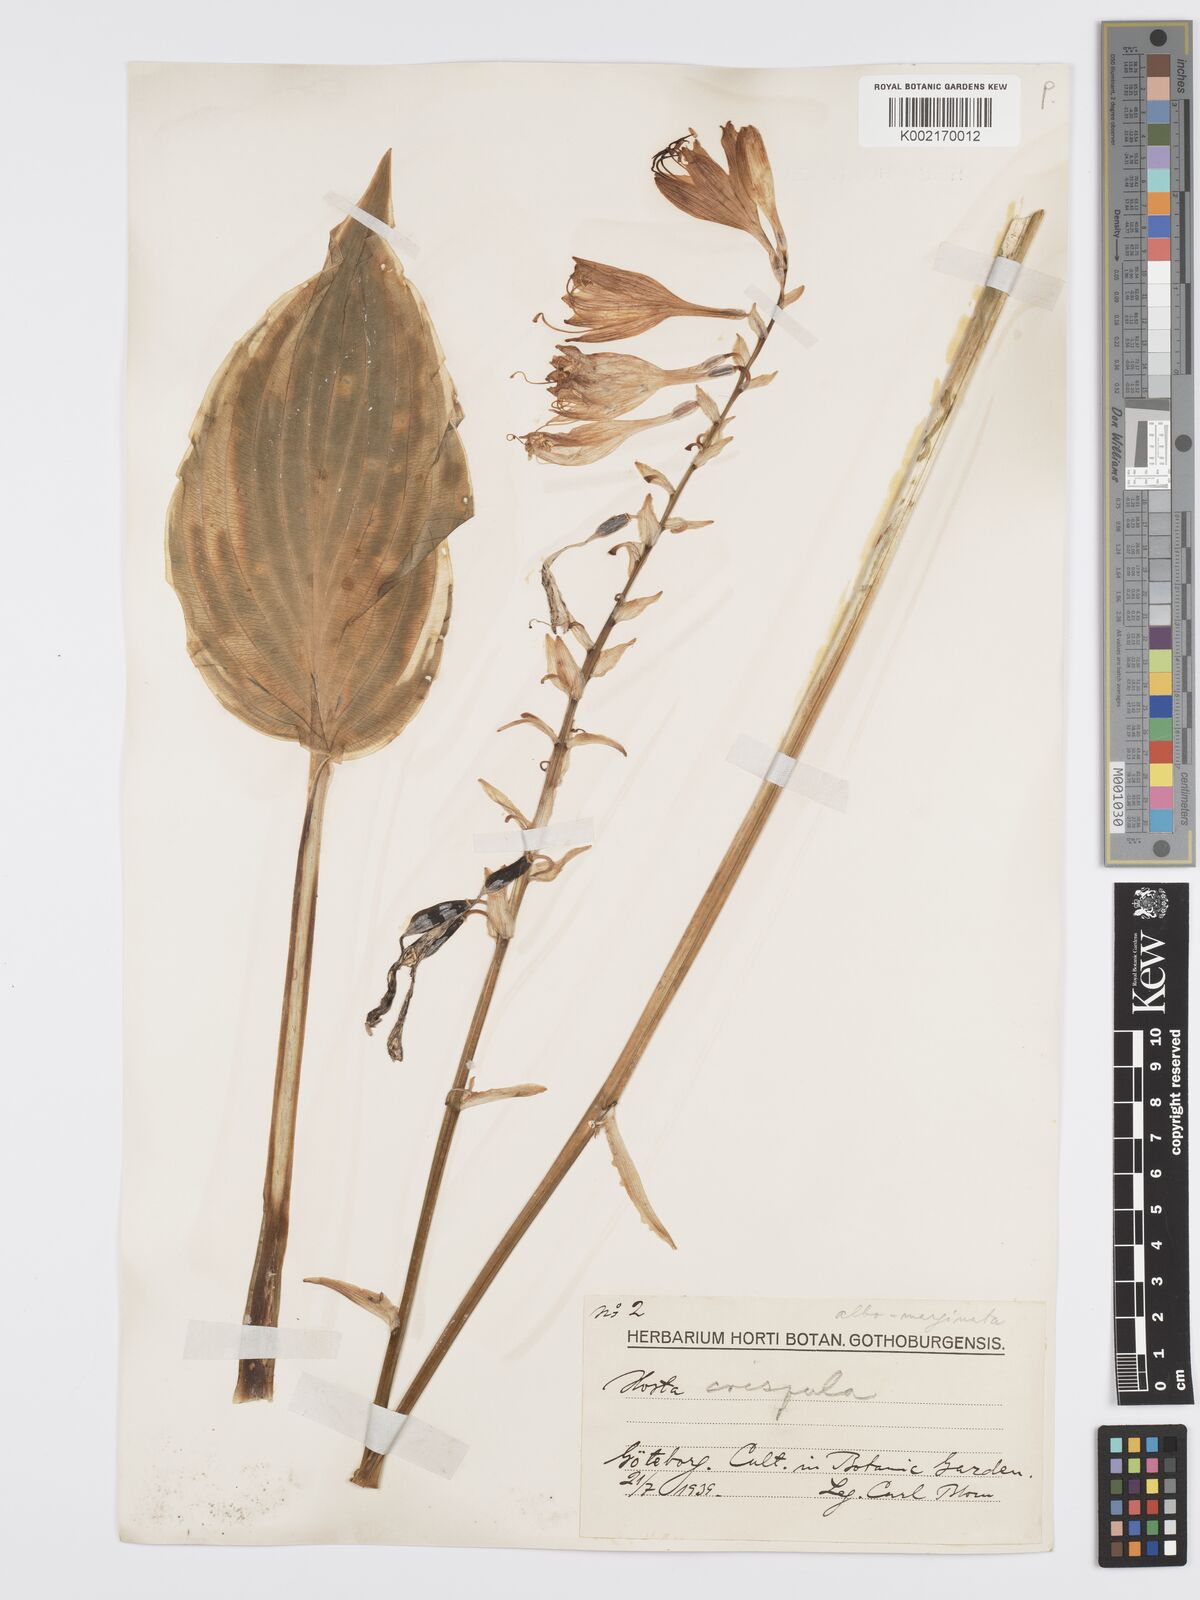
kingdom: Plantae
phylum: Tracheophyta
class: Liliopsida
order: Asparagales
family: Asparagaceae
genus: Hosta
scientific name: Hosta sieboldiana
